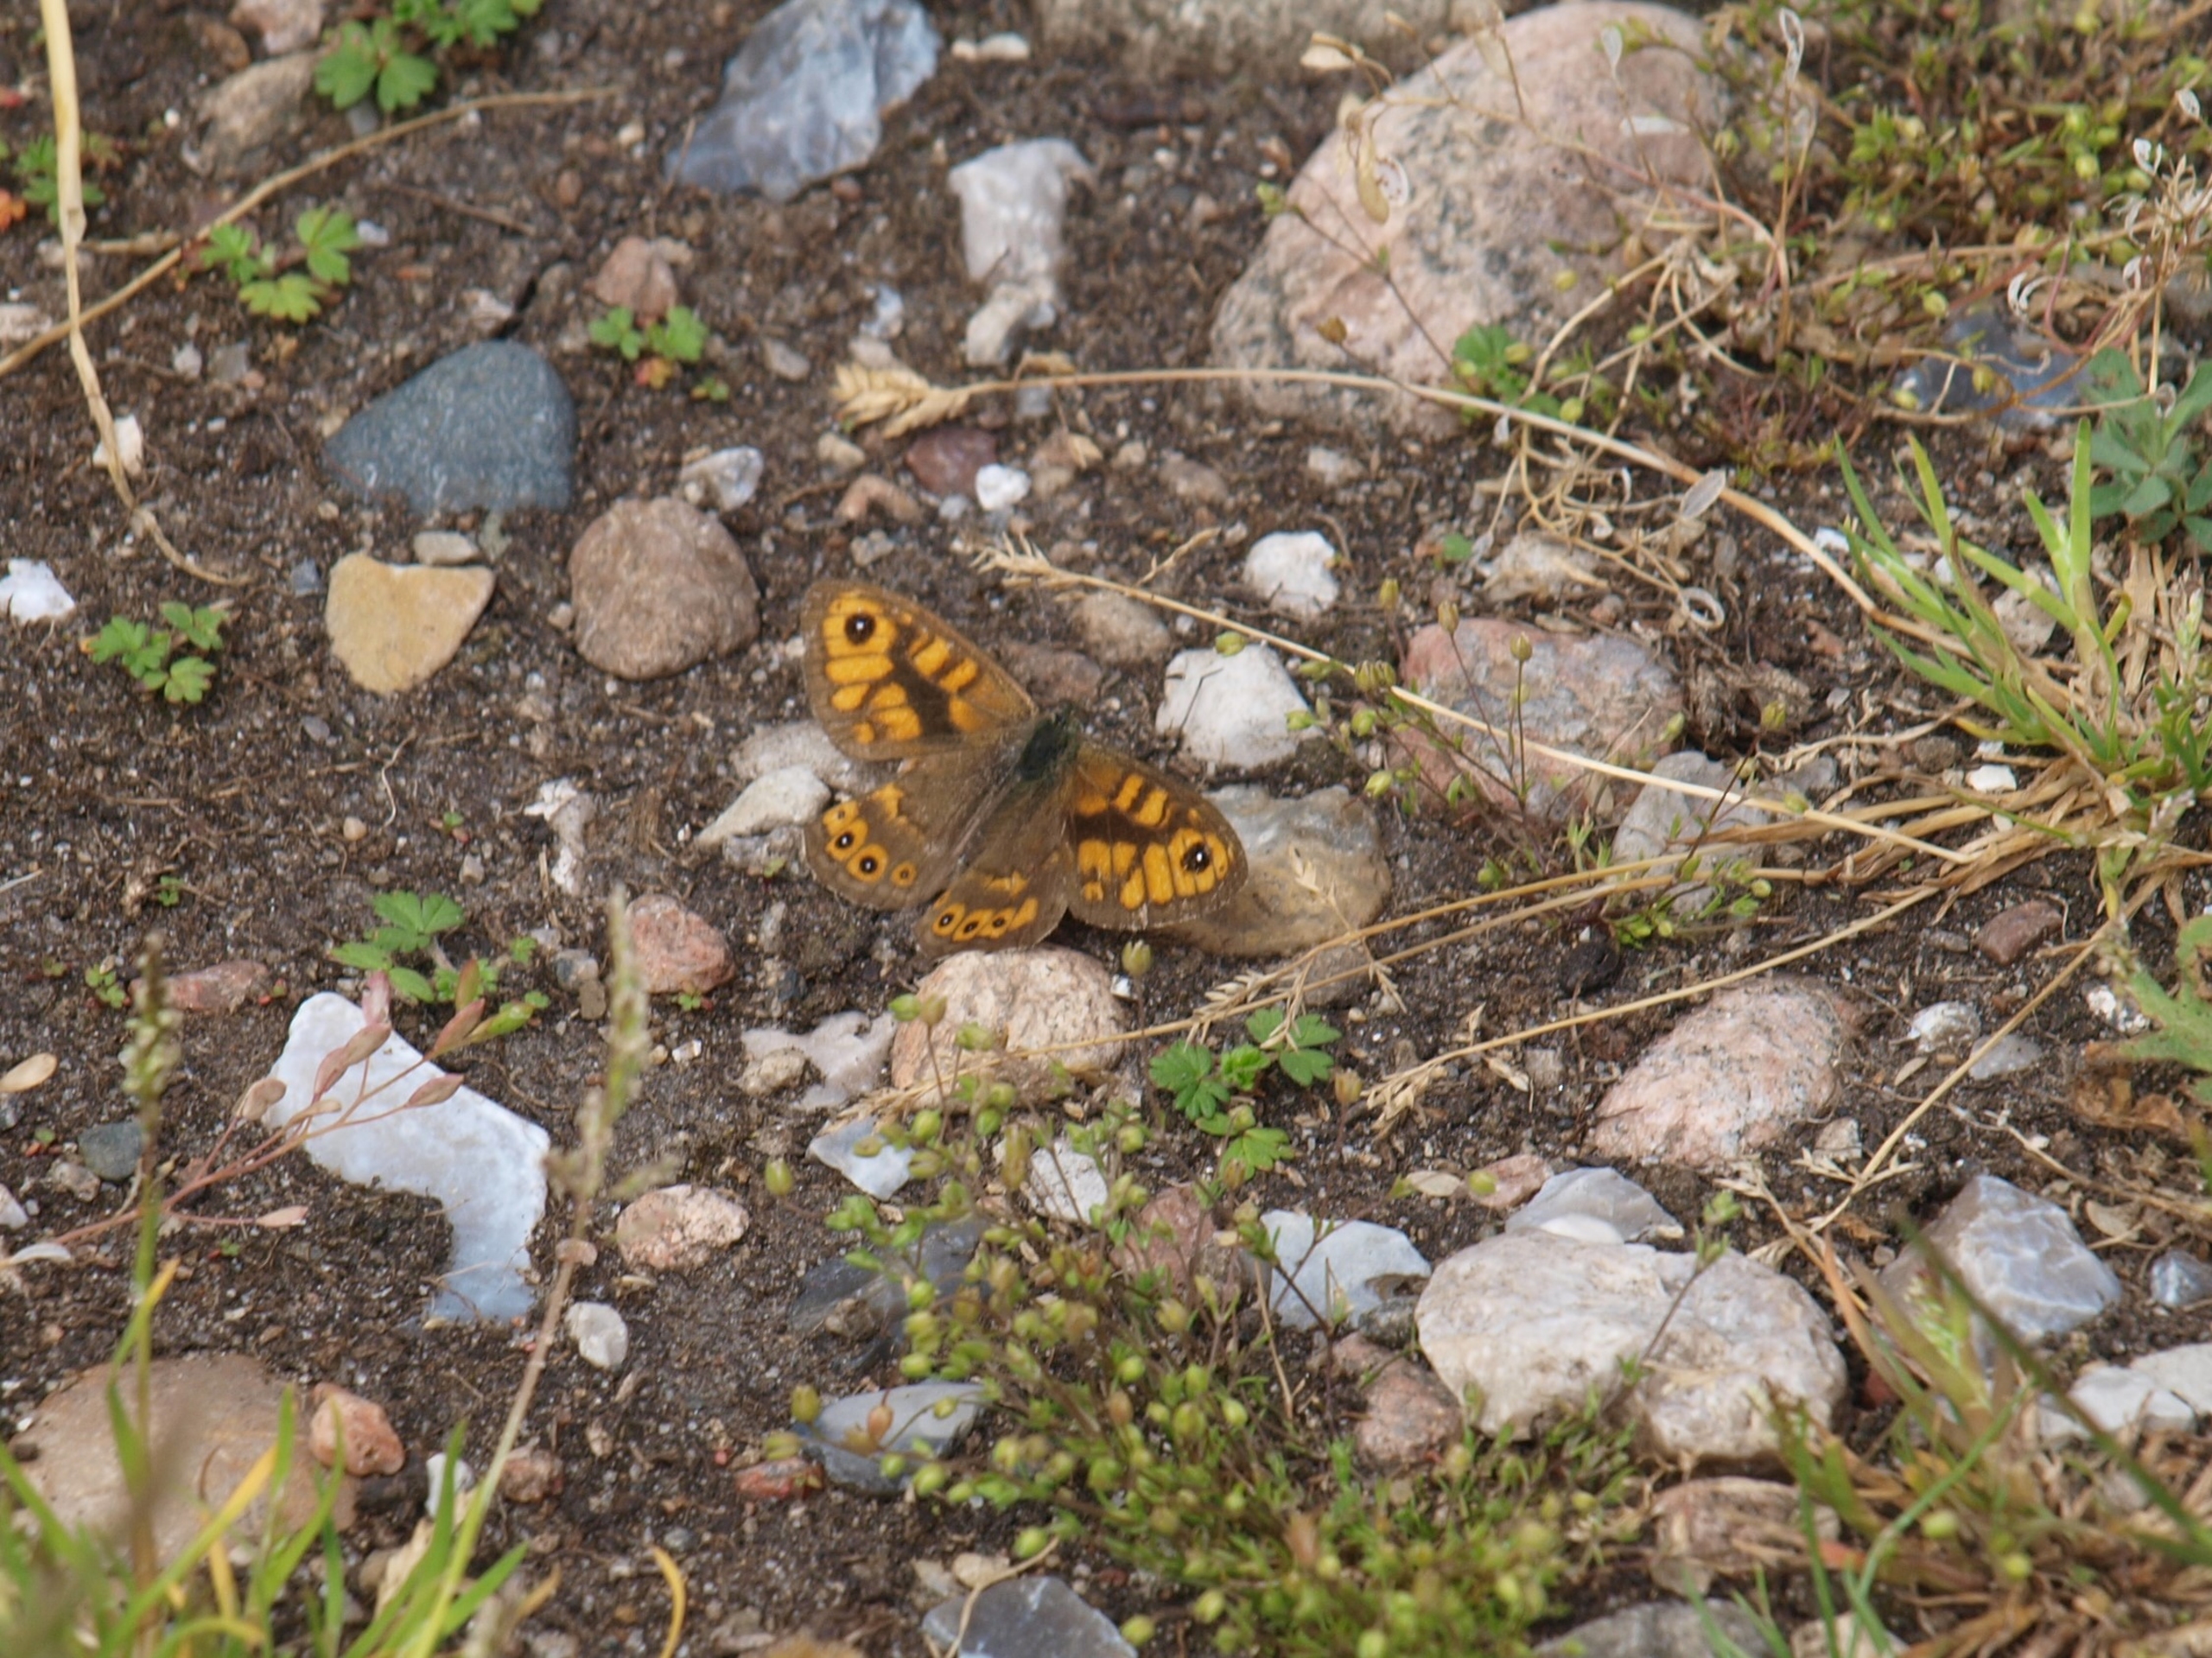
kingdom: Animalia
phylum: Arthropoda
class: Insecta
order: Lepidoptera
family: Nymphalidae
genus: Pararge
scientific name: Pararge Lasiommata megera
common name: Vejrandøje
